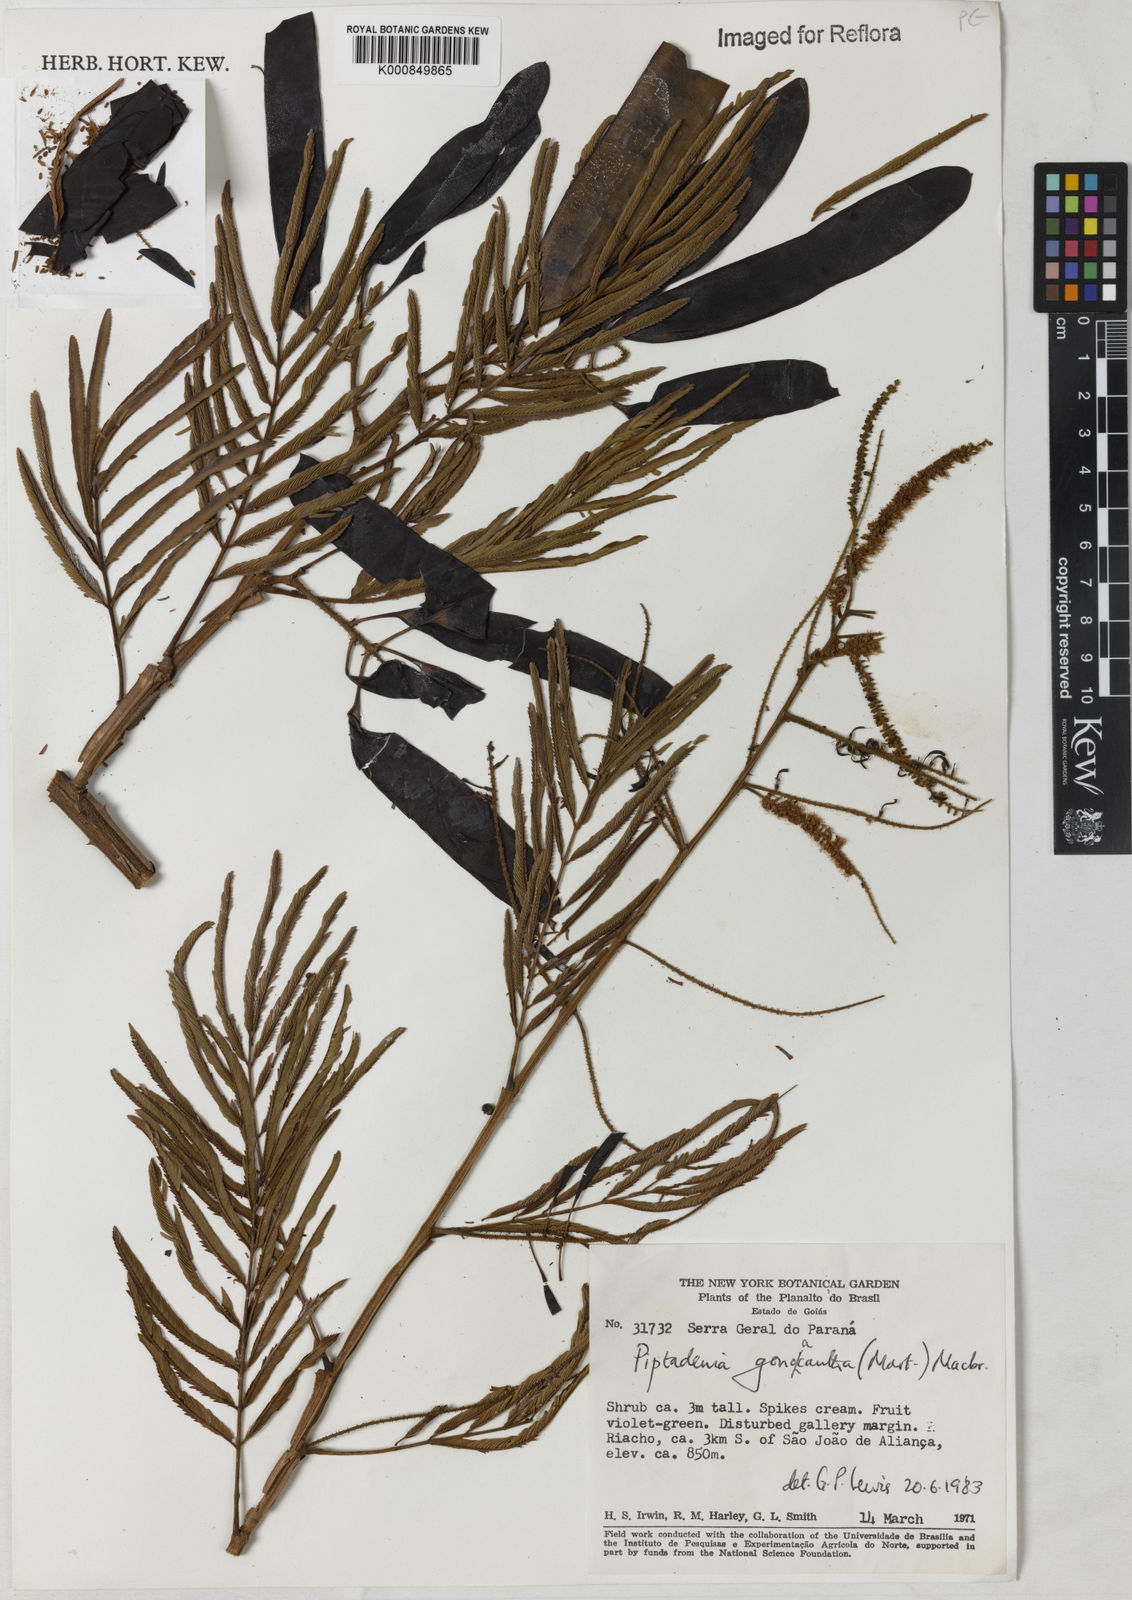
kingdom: Plantae
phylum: Tracheophyta
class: Magnoliopsida
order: Fabales
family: Fabaceae
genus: Piptadenia
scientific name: Piptadenia gonoacantha
